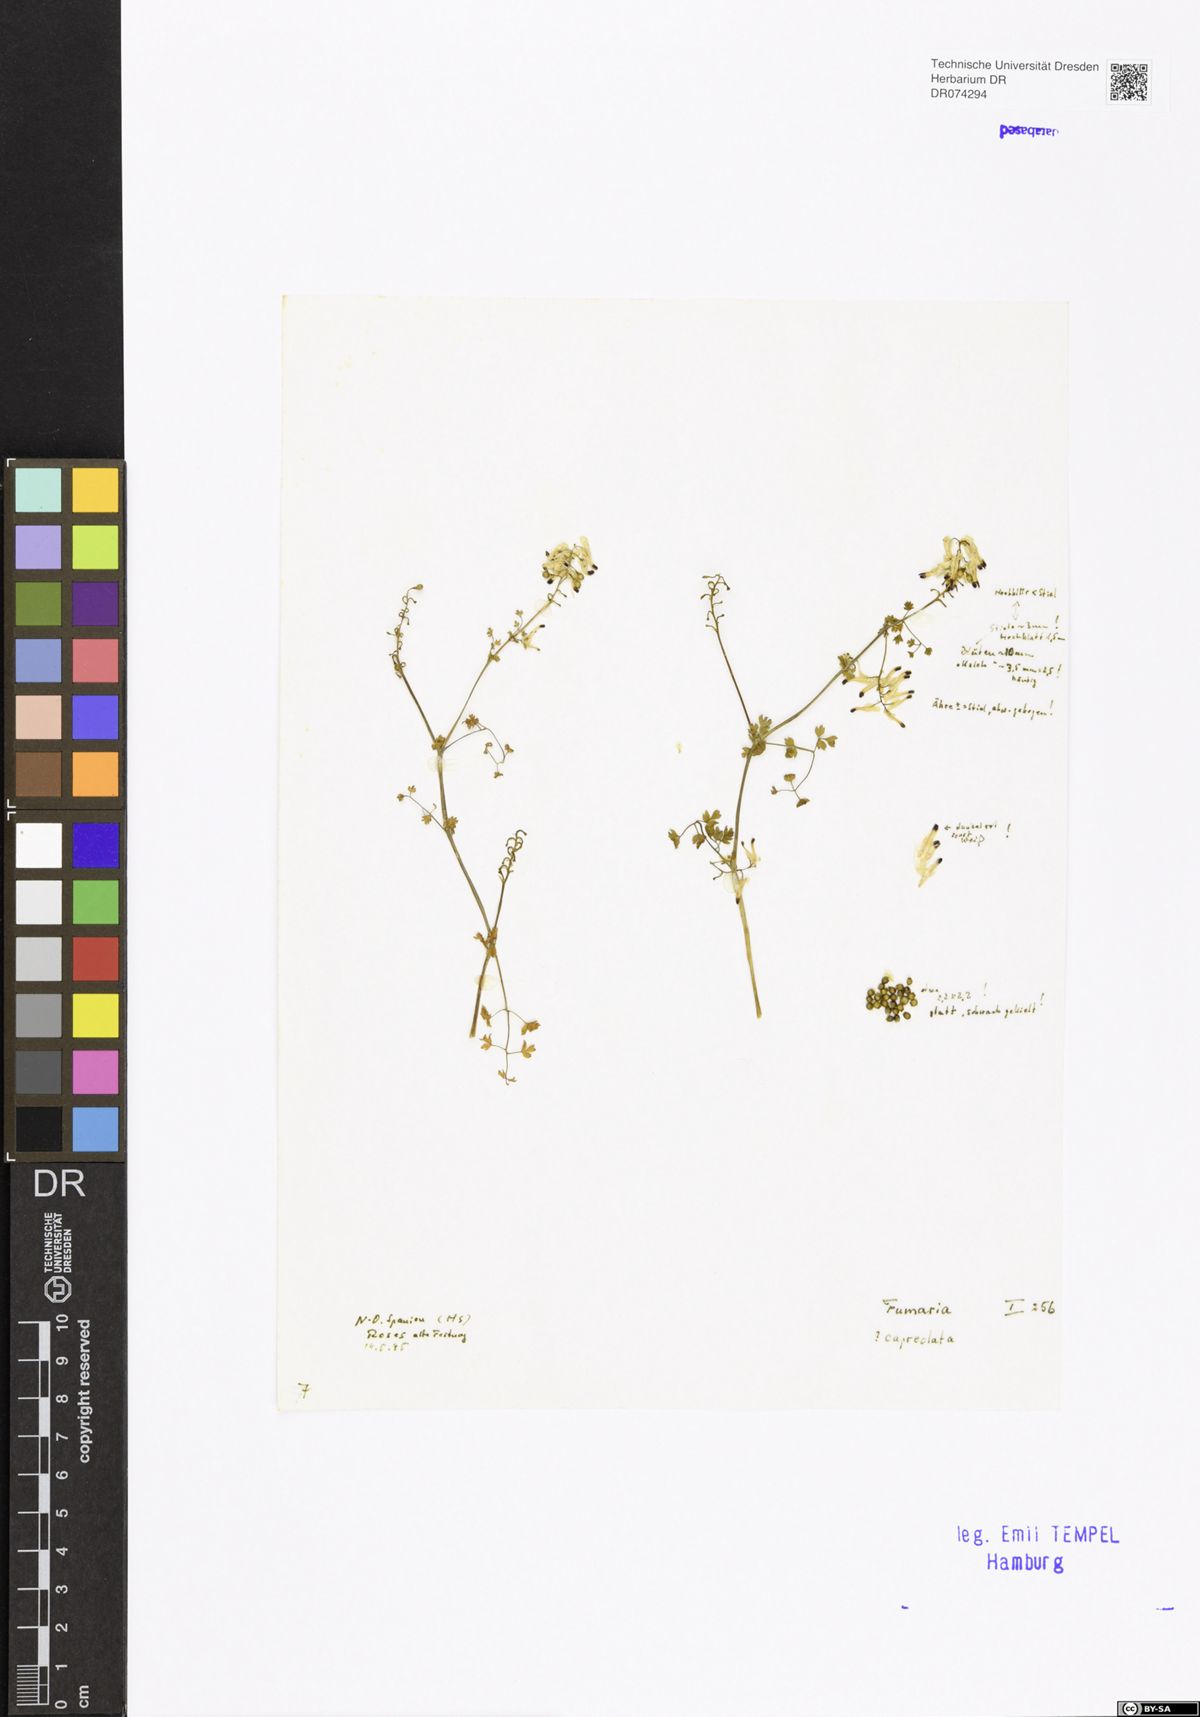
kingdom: Plantae
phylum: Tracheophyta
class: Magnoliopsida
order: Ranunculales
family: Papaveraceae
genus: Fumaria
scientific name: Fumaria capreolata
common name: White ramping-fumitory
